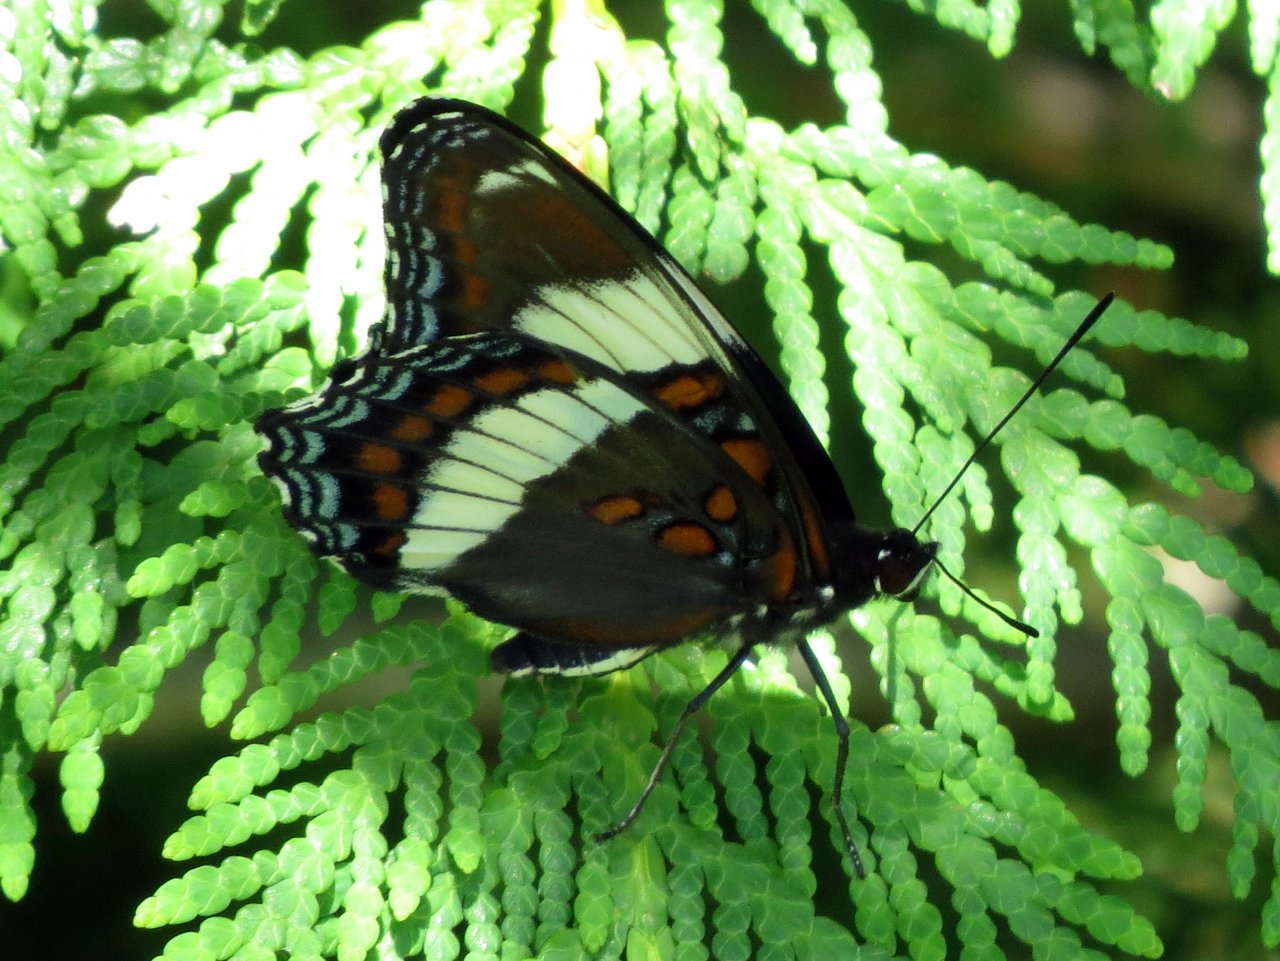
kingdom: Animalia
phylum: Arthropoda
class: Insecta
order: Lepidoptera
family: Nymphalidae
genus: Limenitis
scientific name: Limenitis arthemis
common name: Red-spotted Admiral
